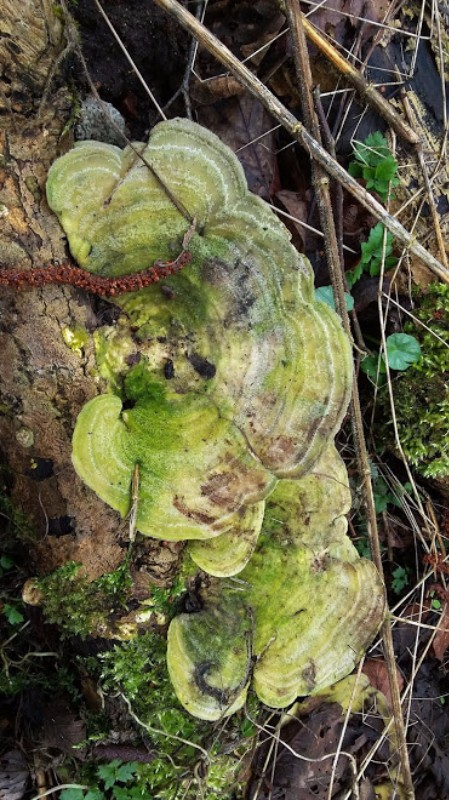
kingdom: Fungi
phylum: Basidiomycota
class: Agaricomycetes
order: Polyporales
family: Polyporaceae
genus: Trametes
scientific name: Trametes hirsuta
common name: håret læderporesvamp
